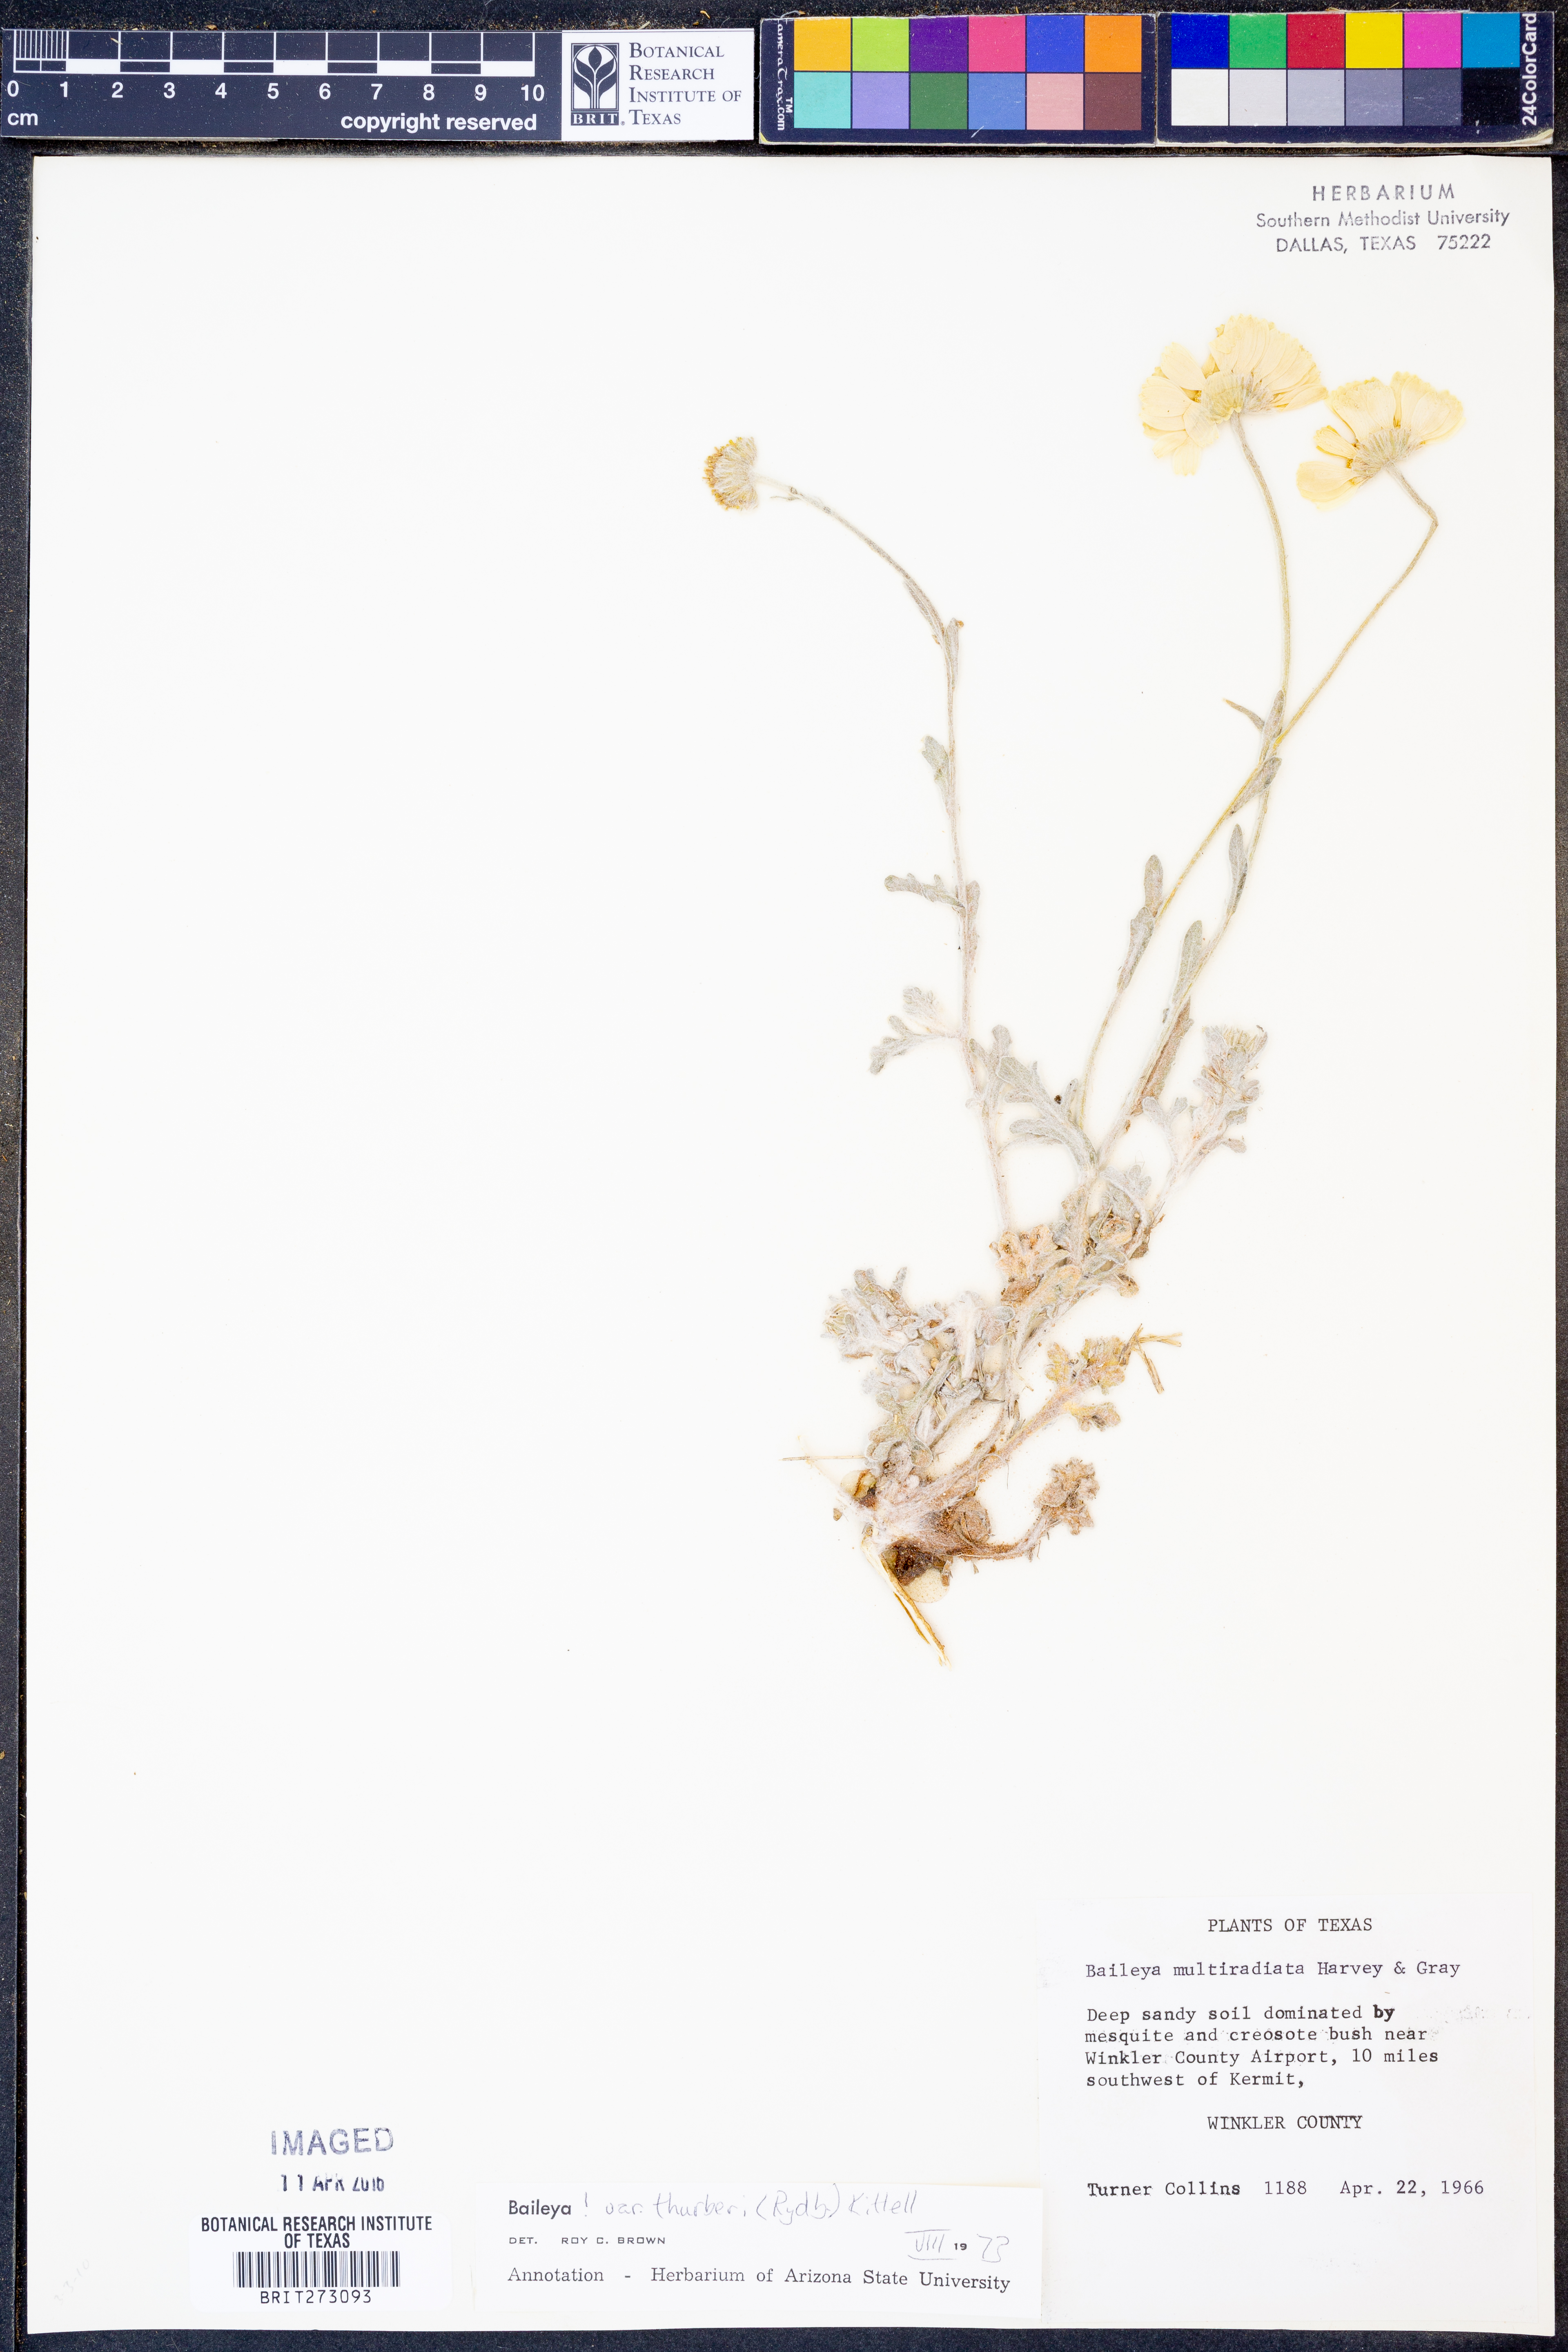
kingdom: Plantae
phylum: Tracheophyta
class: Magnoliopsida
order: Asterales
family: Asteraceae
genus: Baileya
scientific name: Baileya multiradiata
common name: Desert-marigold
